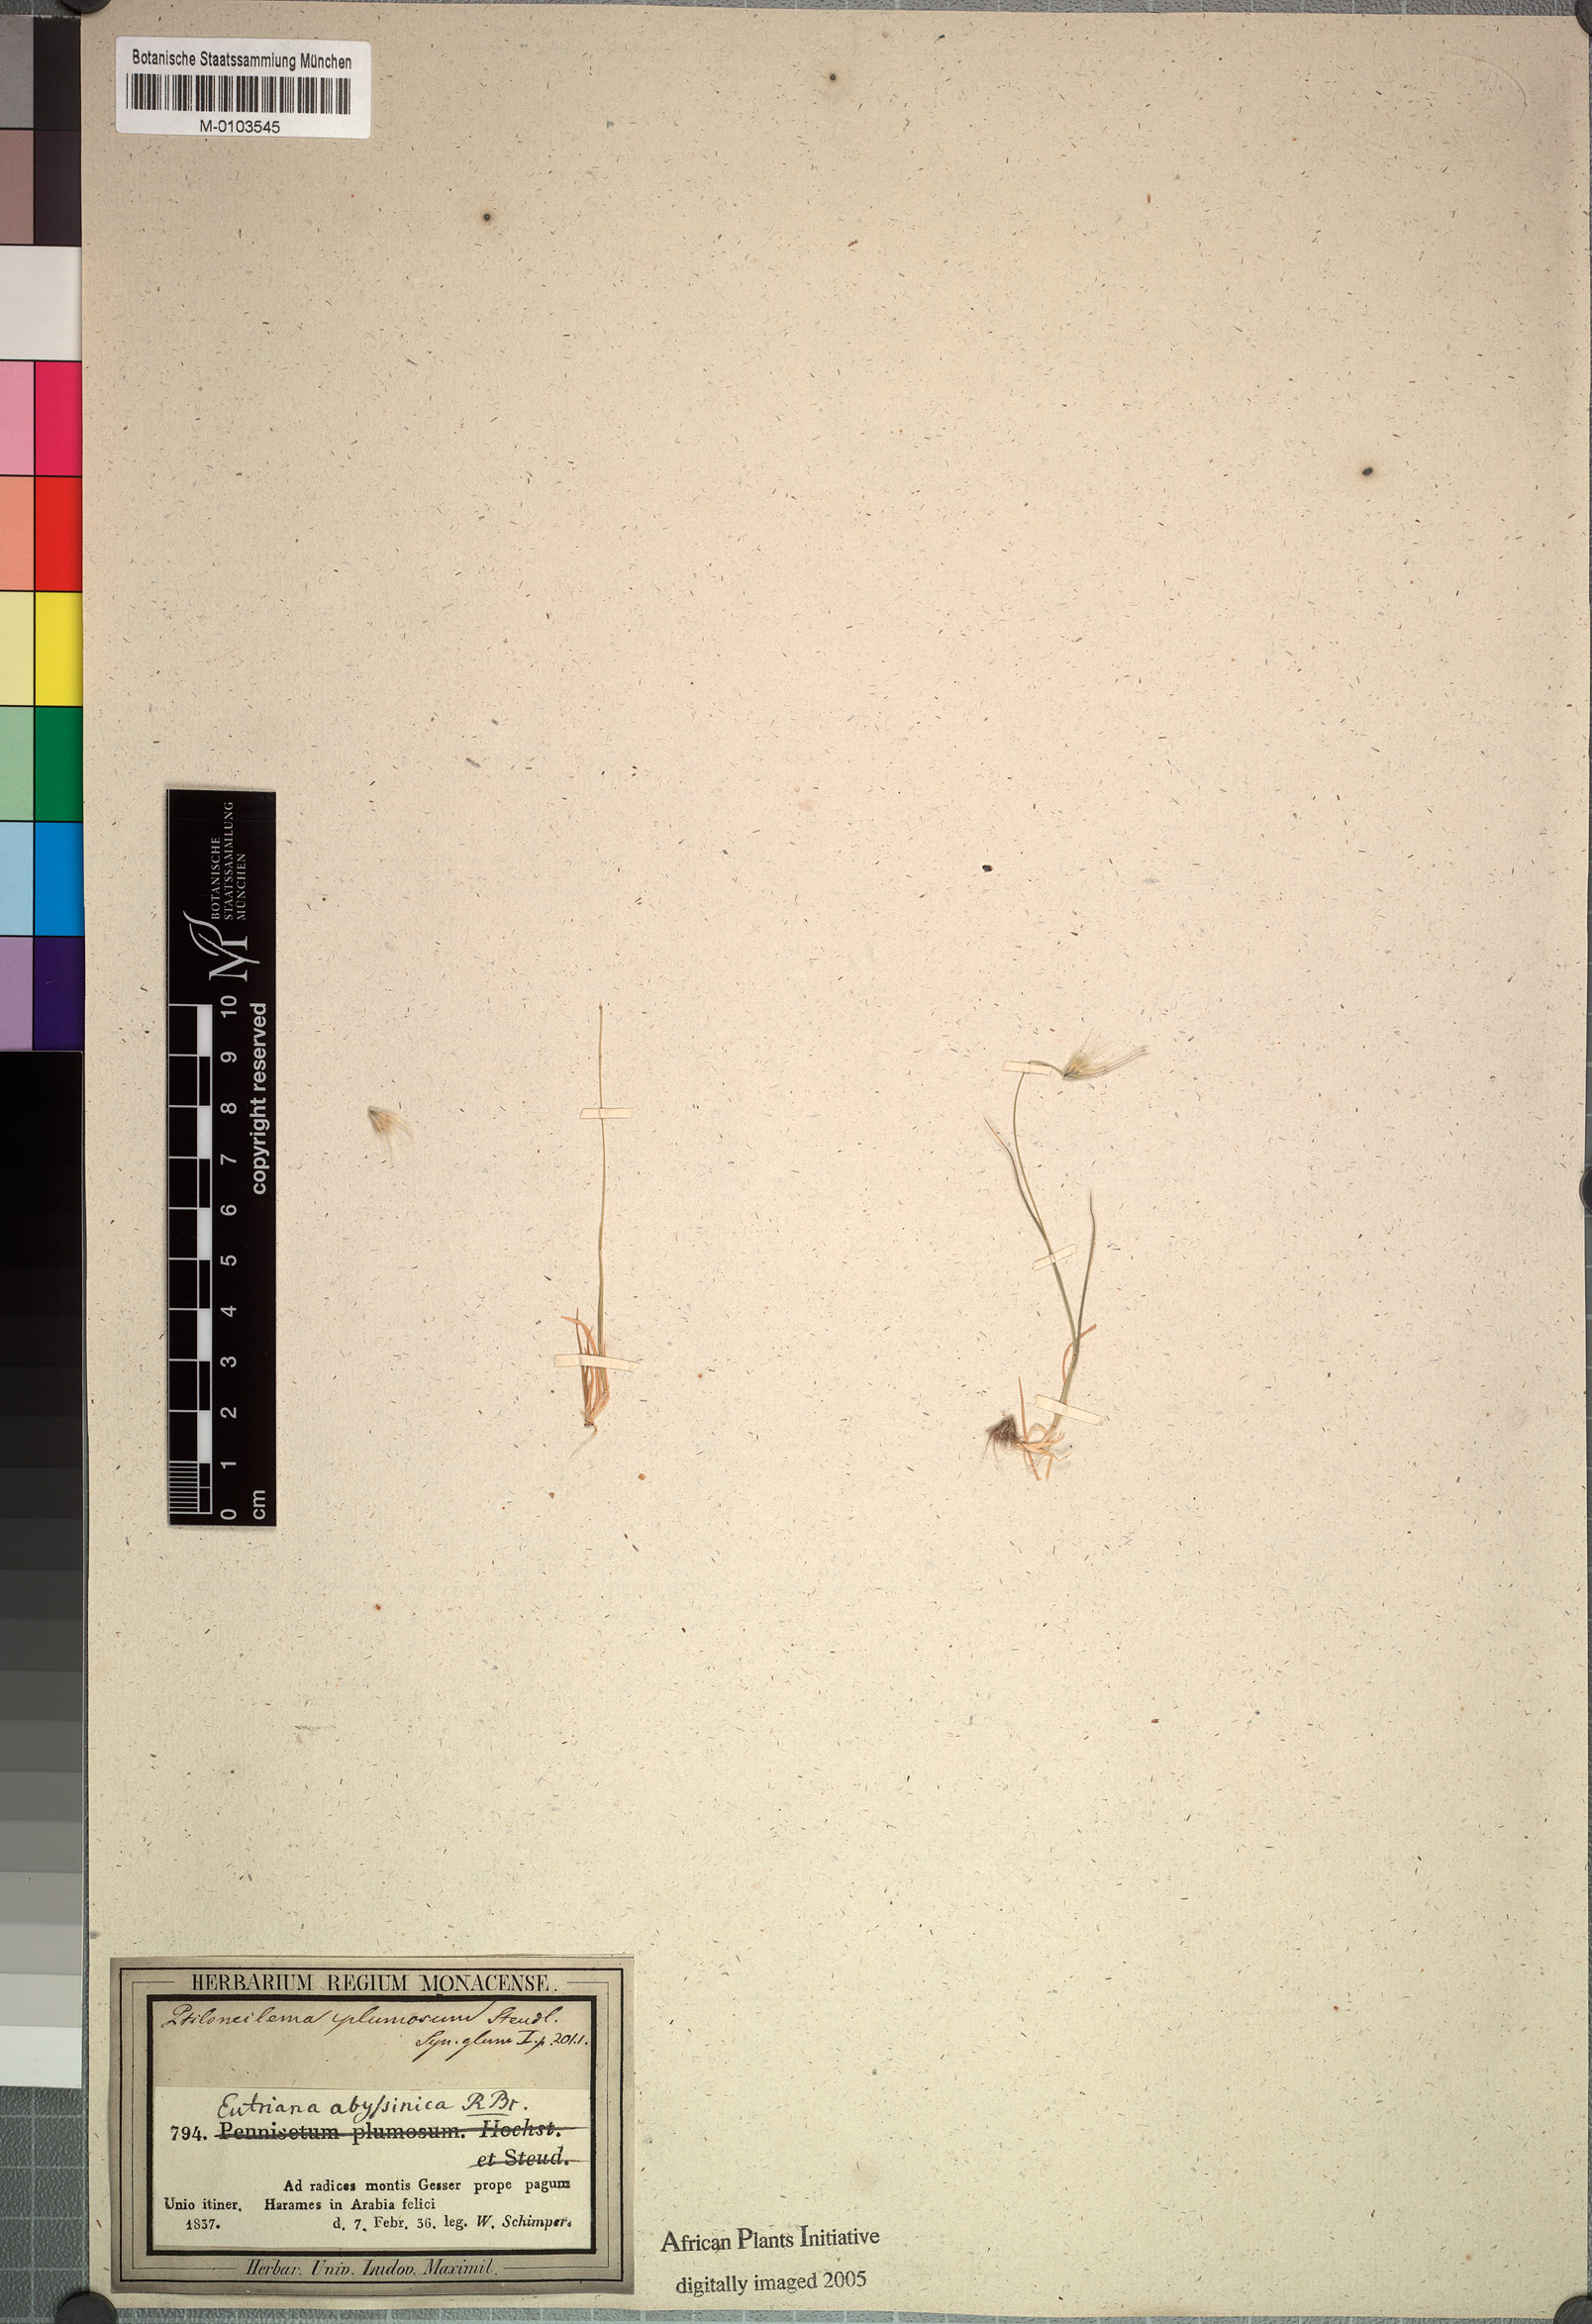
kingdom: Plantae
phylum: Tracheophyta
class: Liliopsida
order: Poales
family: Poaceae
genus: Melanocenchris
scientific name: Melanocenchris abyssinica
